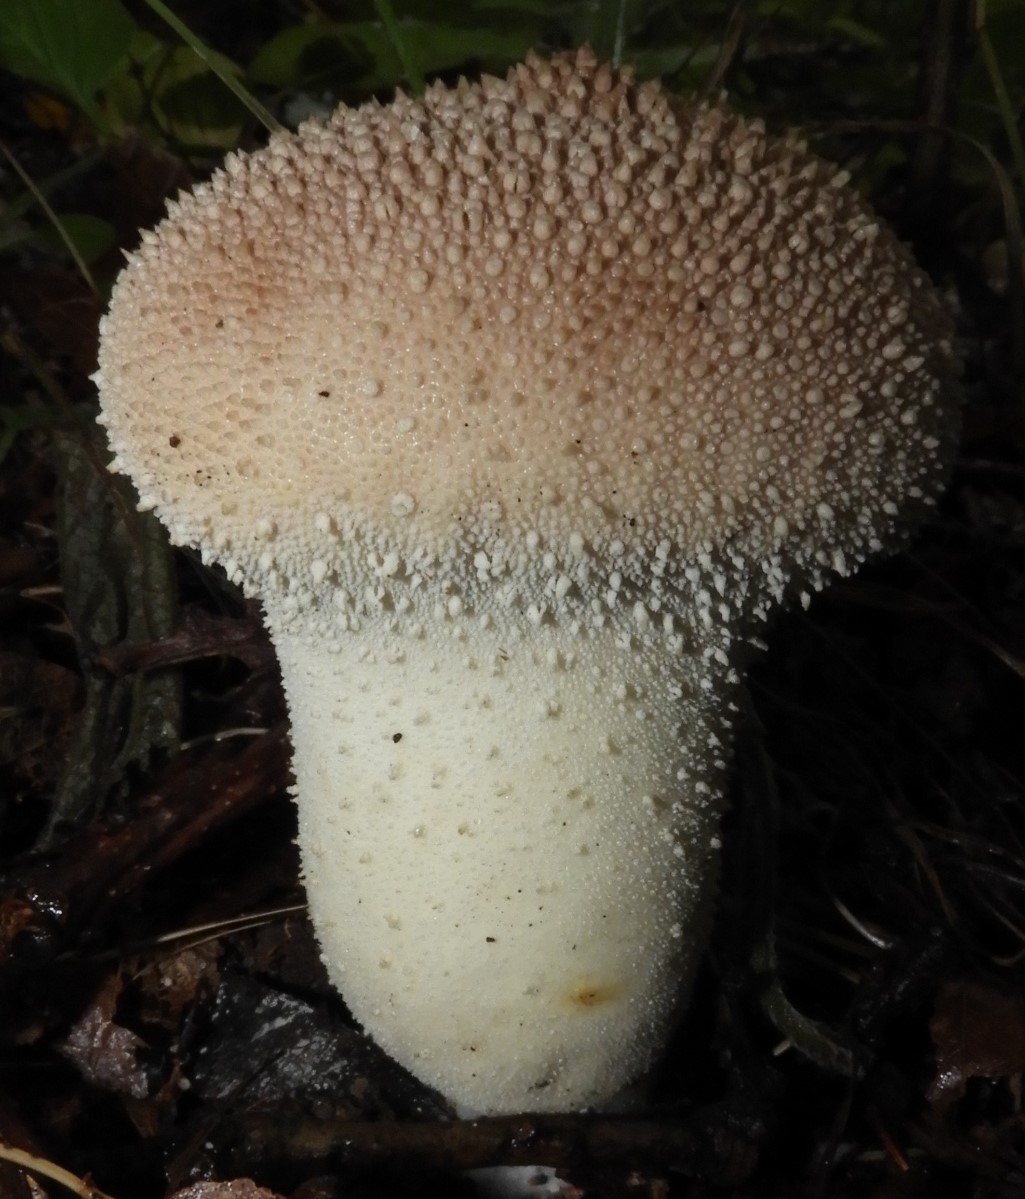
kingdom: Fungi
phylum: Basidiomycota
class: Agaricomycetes
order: Agaricales
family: Lycoperdaceae
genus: Lycoperdon
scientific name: Lycoperdon perlatum
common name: krystal-støvbold
